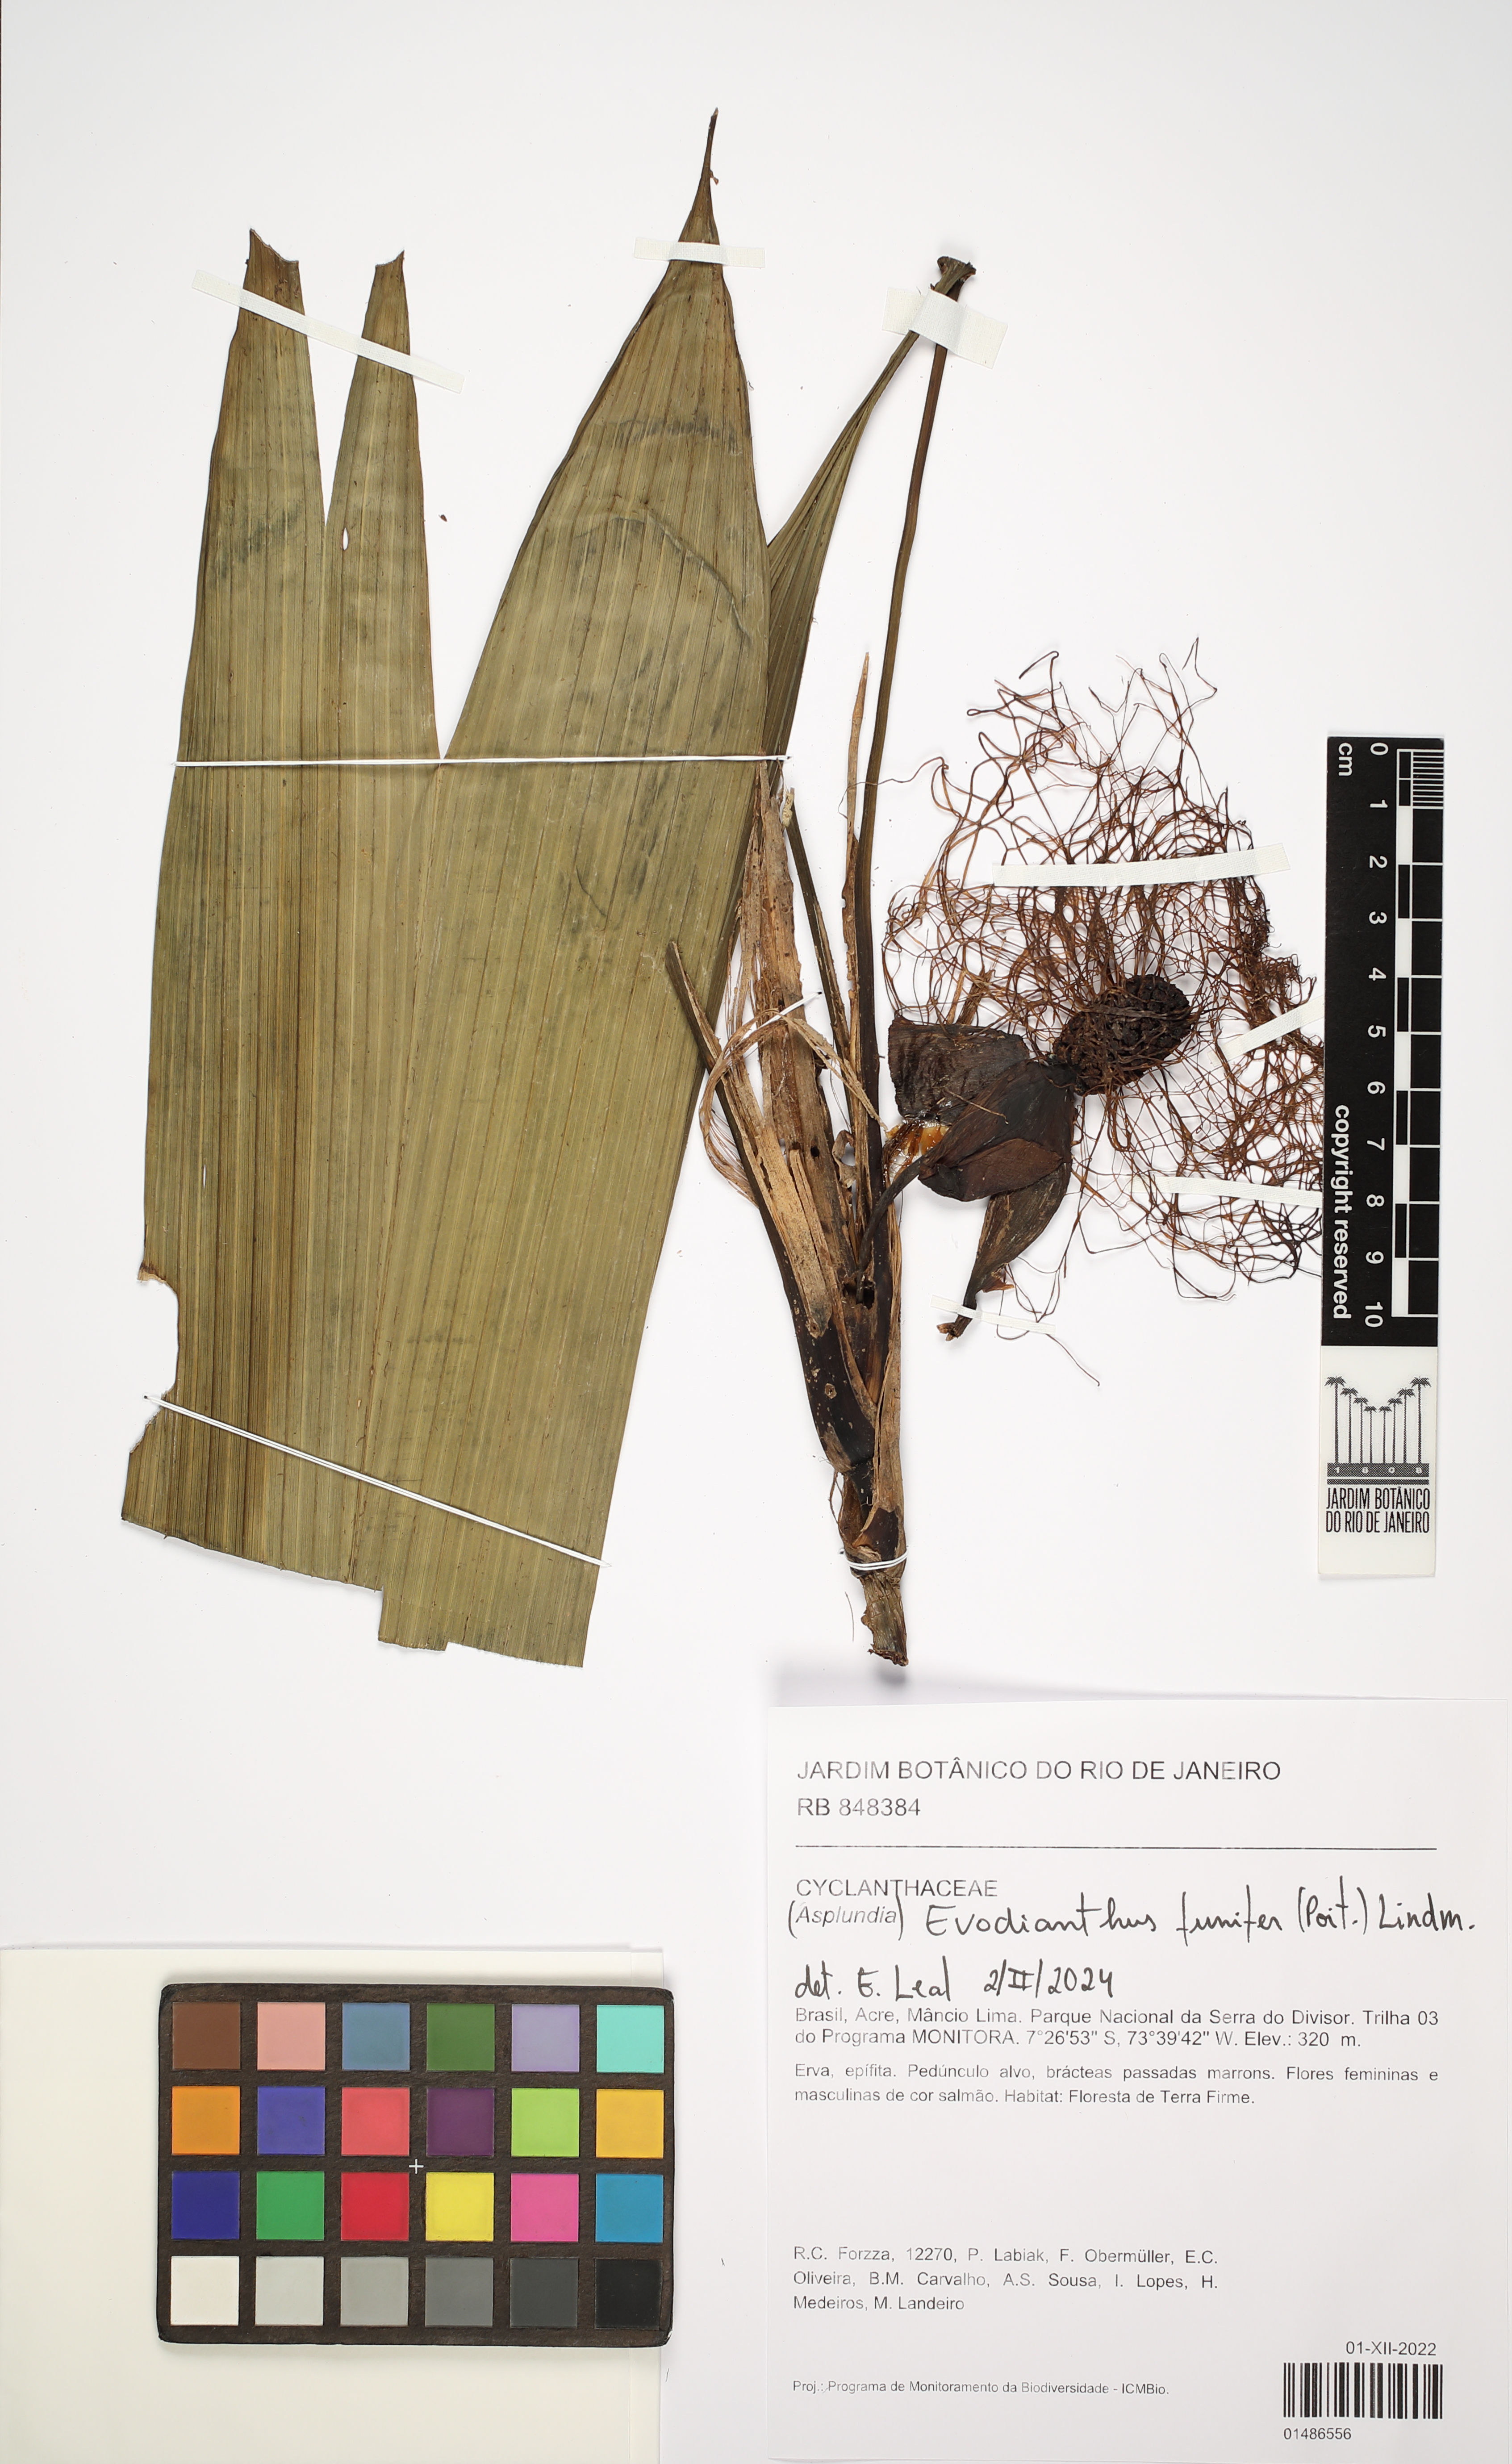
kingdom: Plantae
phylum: Tracheophyta
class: Liliopsida
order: Pandanales
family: Cyclanthaceae
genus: Evodianthus
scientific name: Evodianthus funifer
